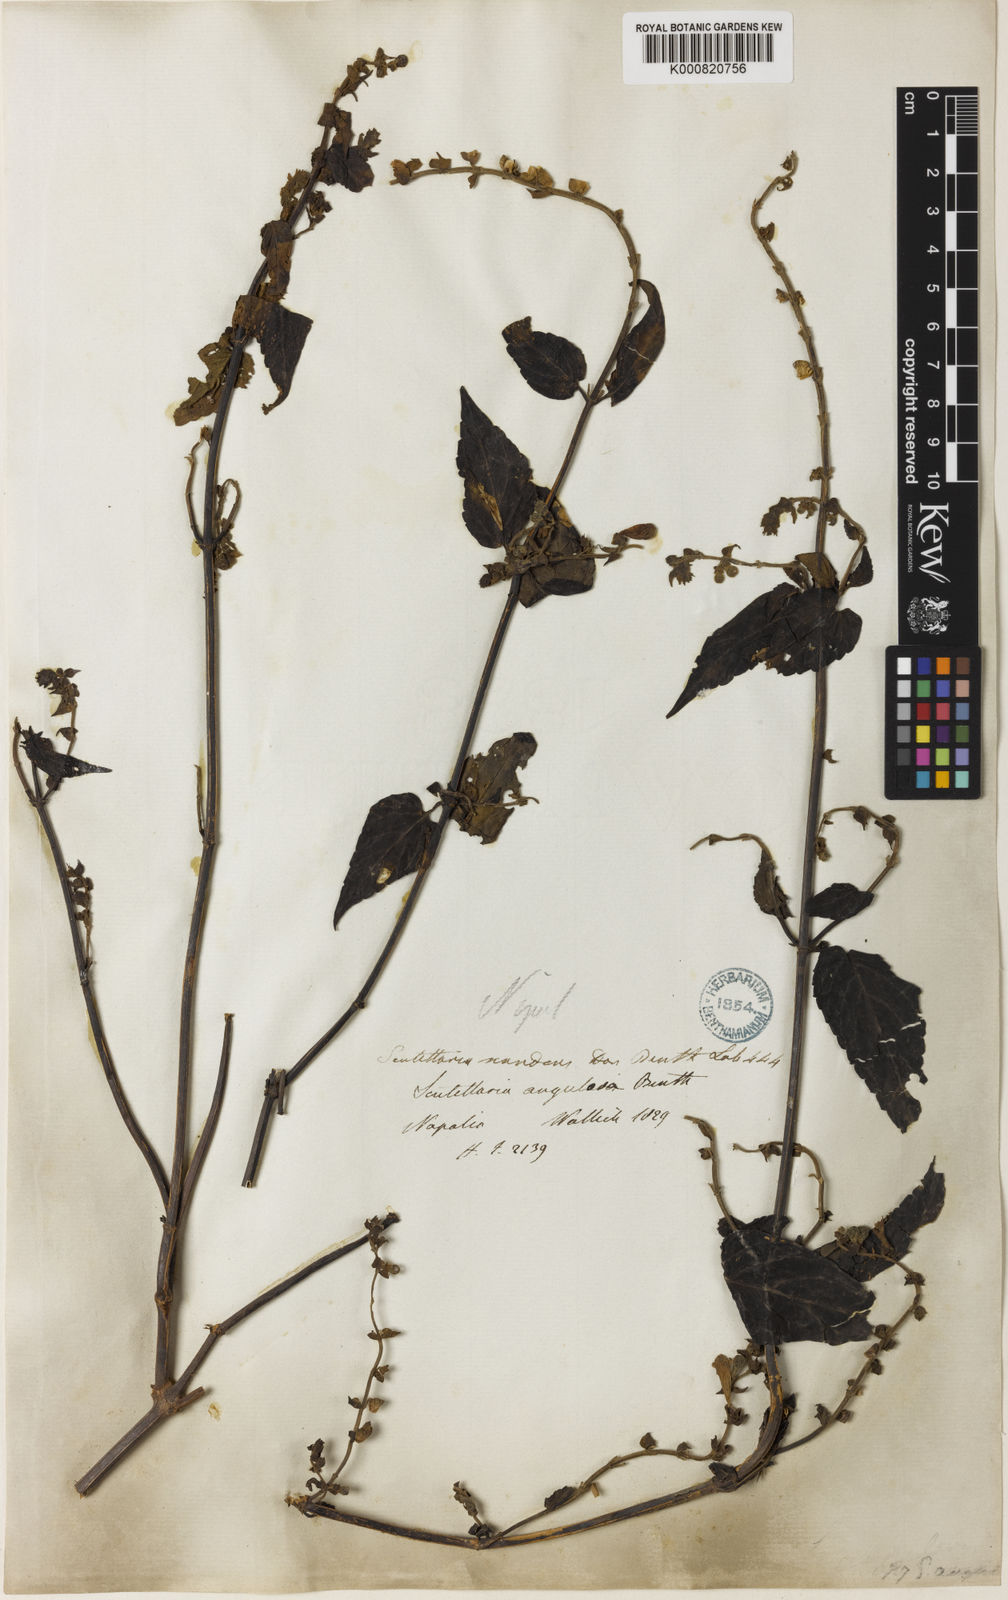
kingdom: Plantae
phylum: Tracheophyta
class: Magnoliopsida
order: Lamiales
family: Lamiaceae
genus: Scutellaria
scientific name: Scutellaria scandens
